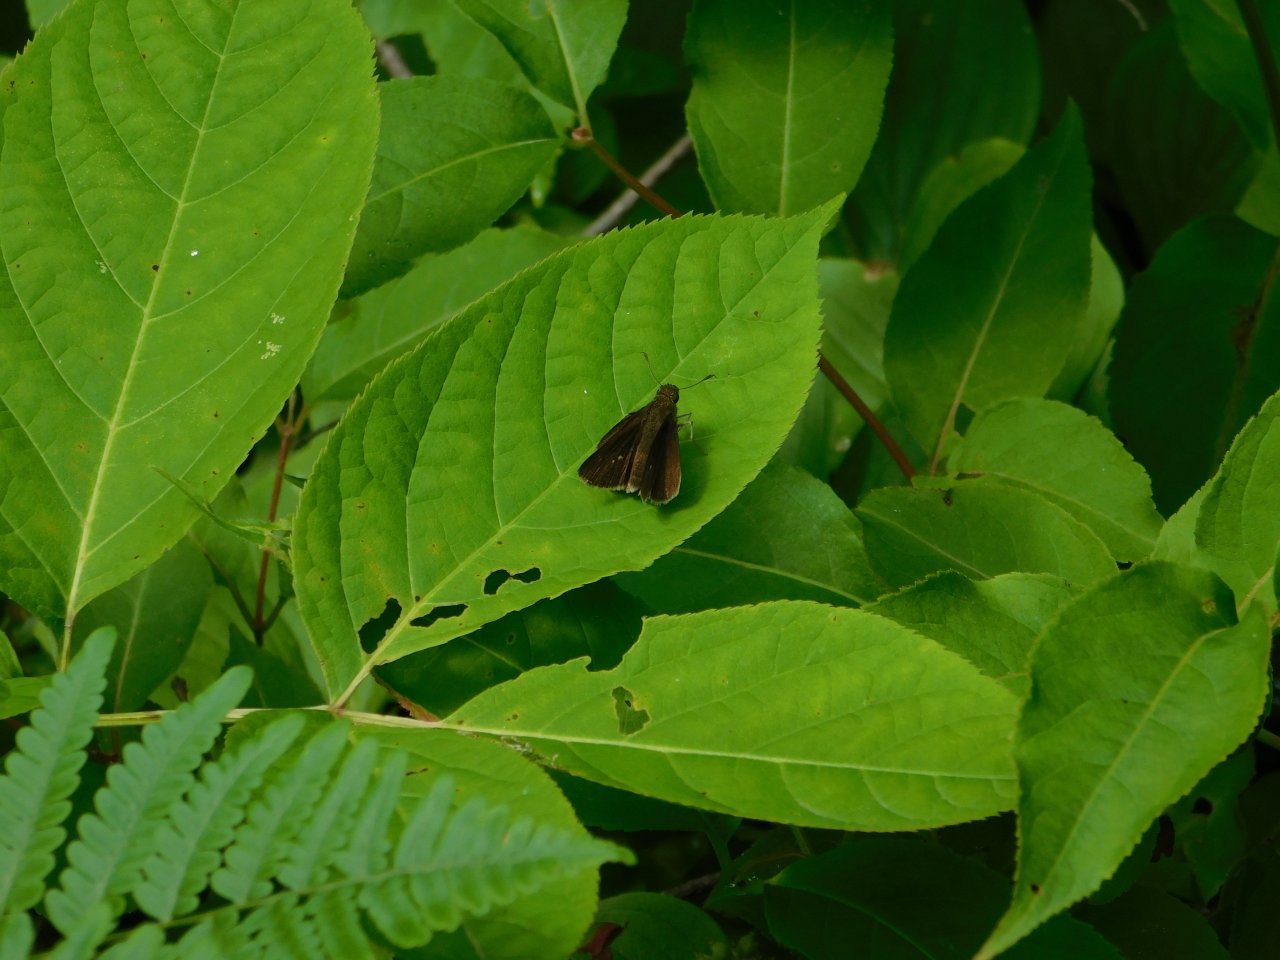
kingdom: Animalia
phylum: Arthropoda
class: Insecta
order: Lepidoptera
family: Hesperiidae
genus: Euphyes
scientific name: Euphyes vestris
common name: Dun Skipper
